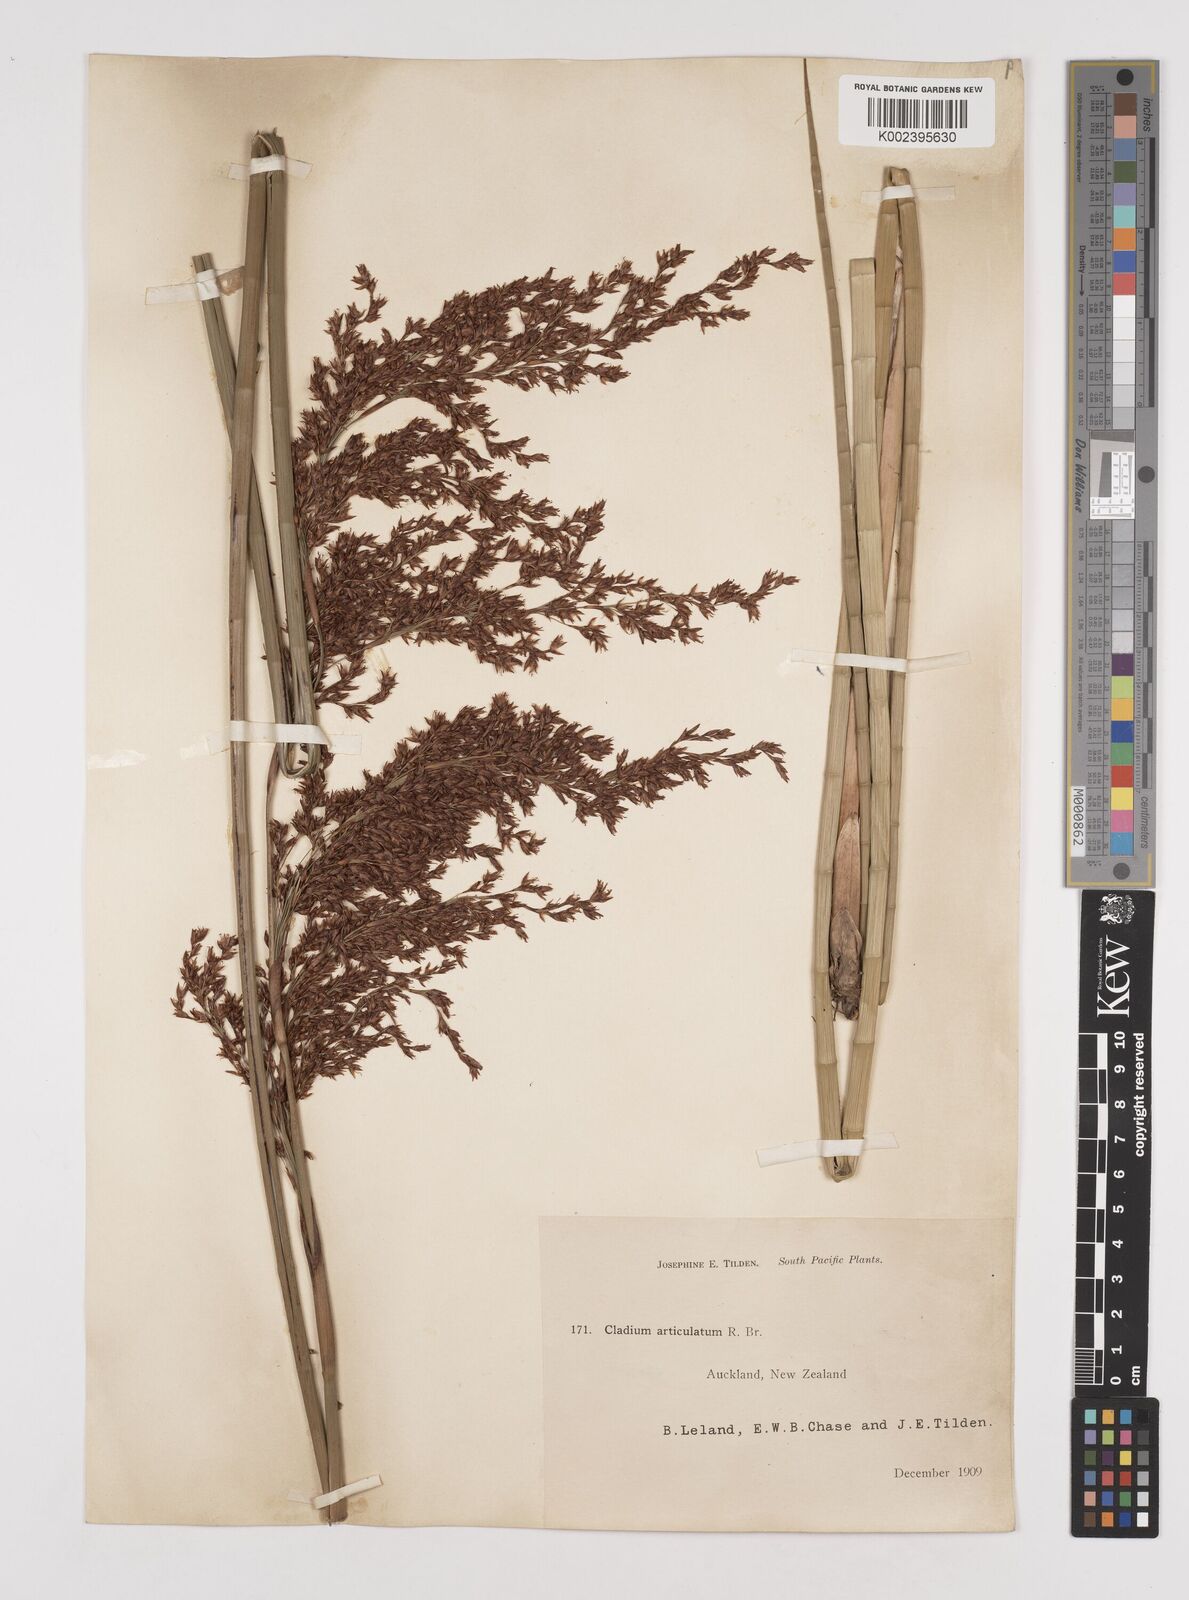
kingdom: Plantae
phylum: Tracheophyta
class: Liliopsida
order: Poales
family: Cyperaceae
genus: Machaerina
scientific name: Machaerina articulata
